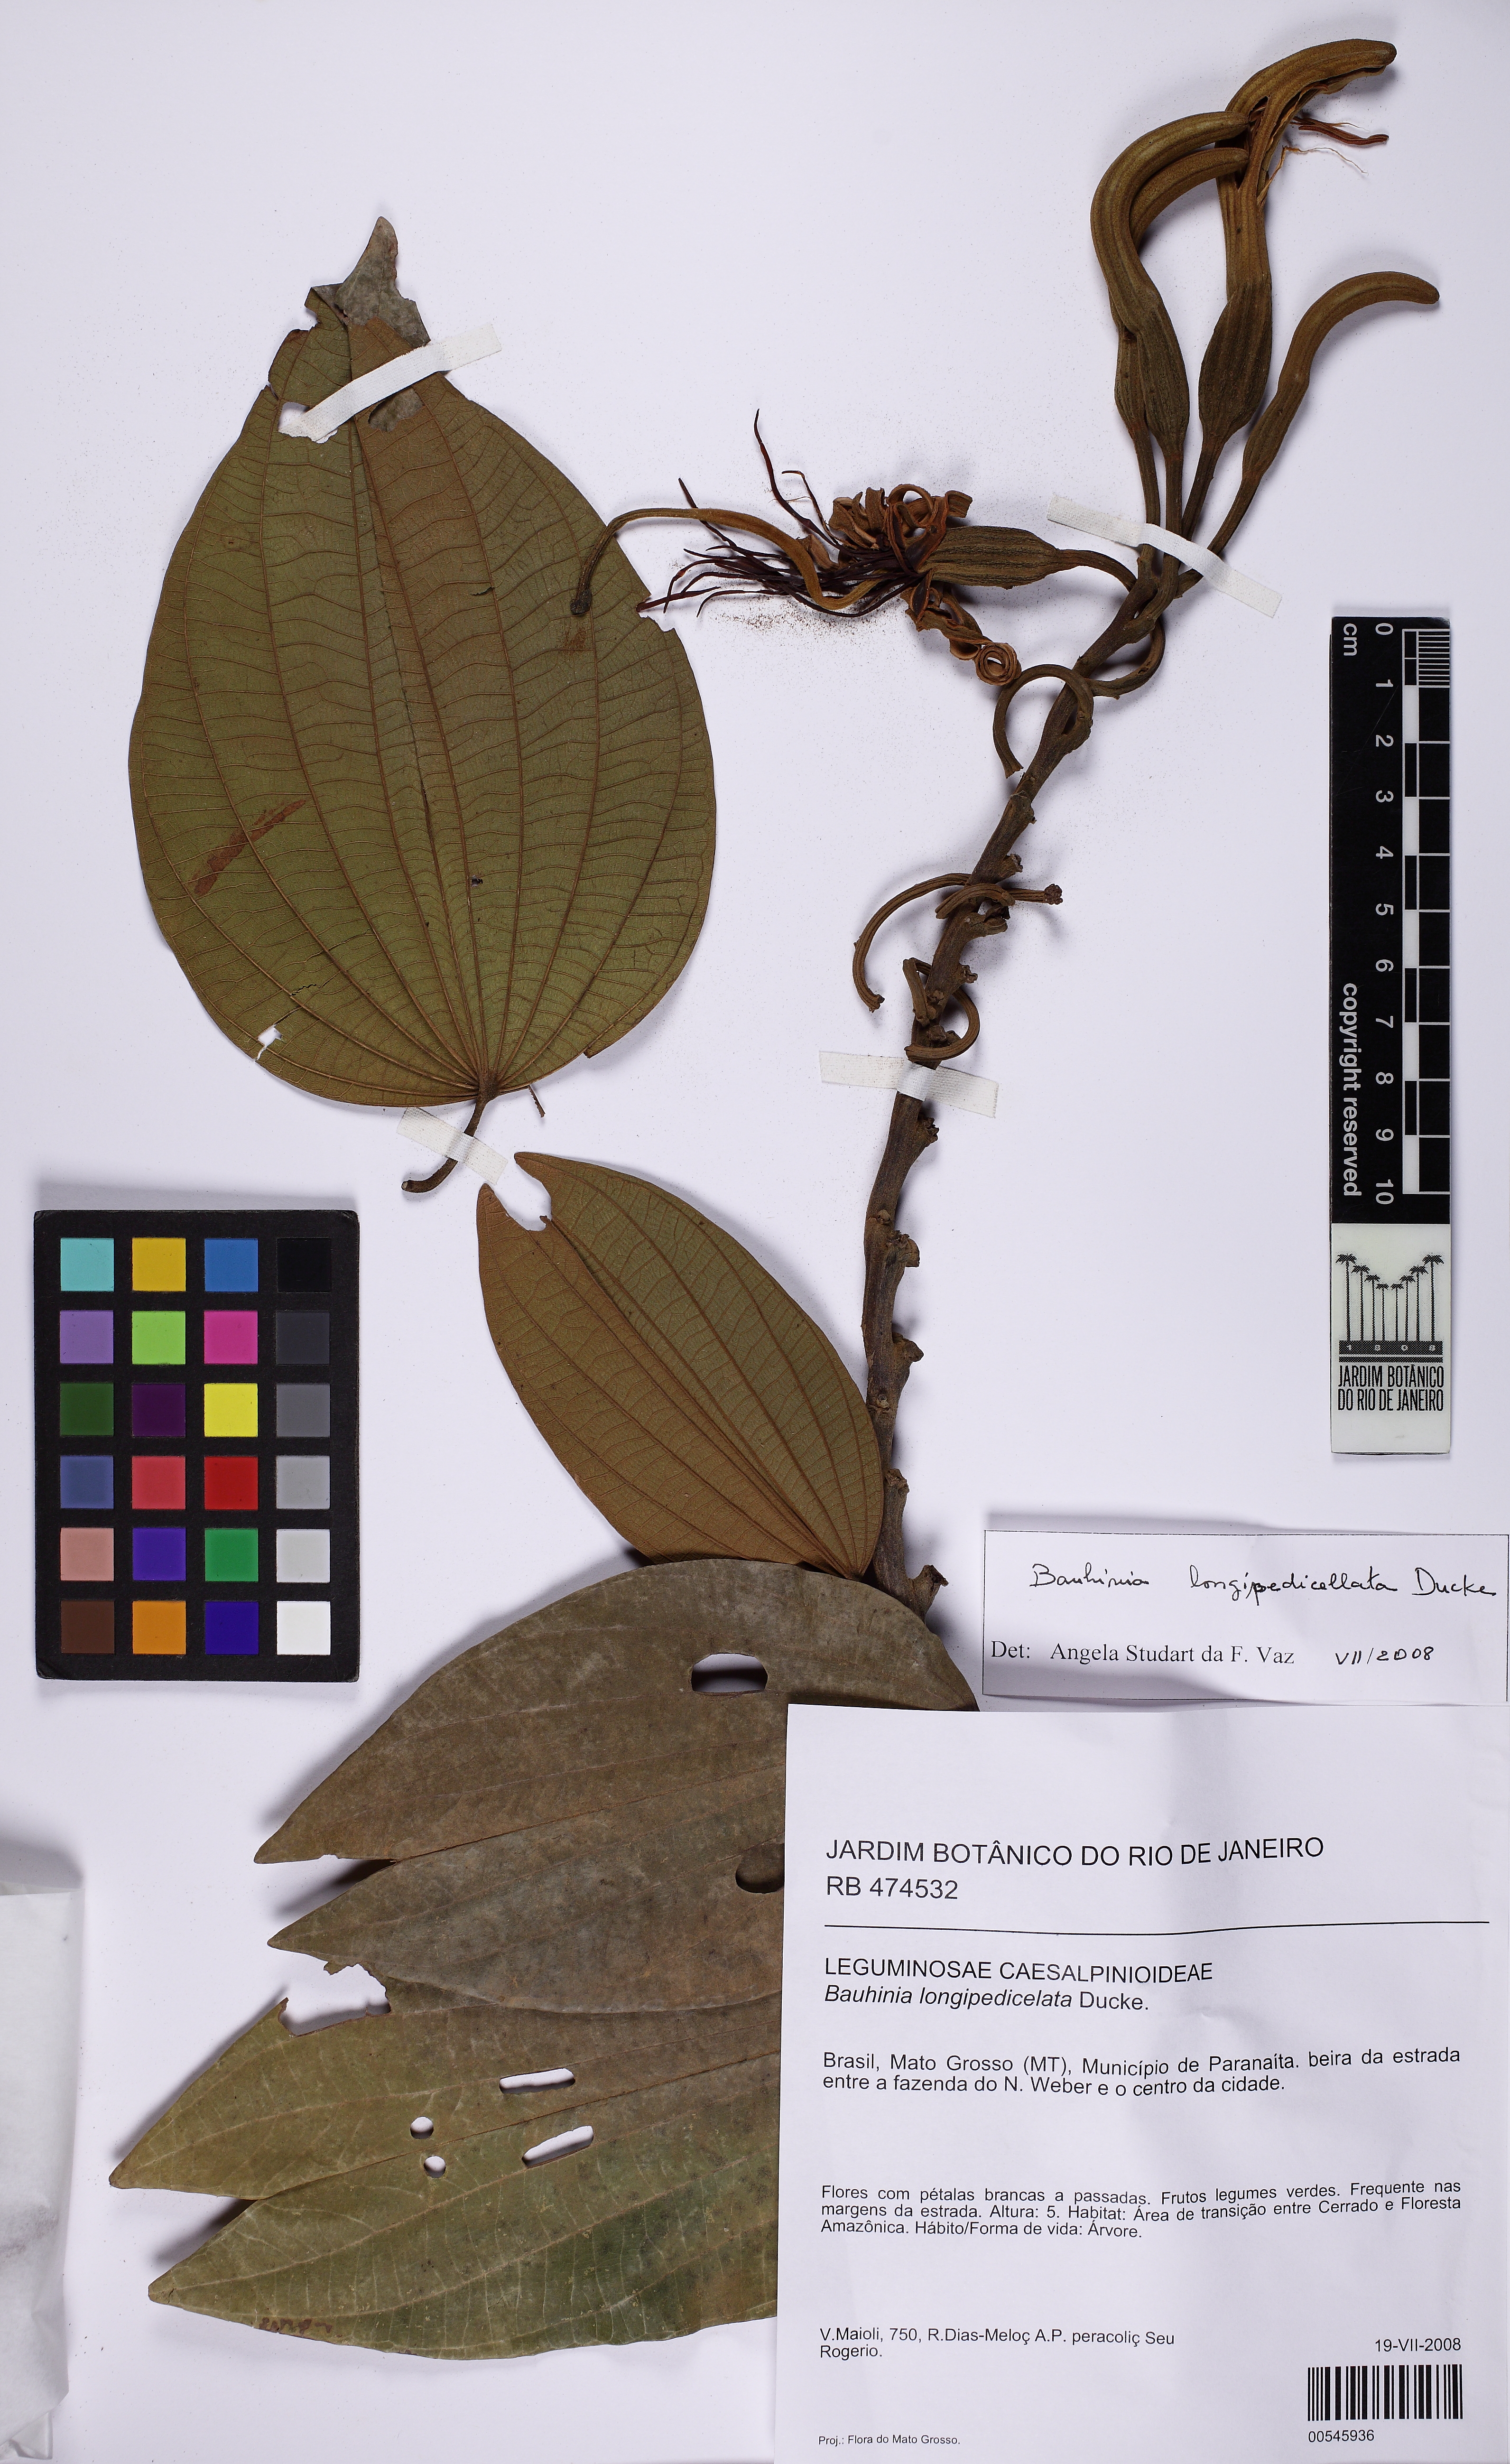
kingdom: Plantae
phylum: Tracheophyta
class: Magnoliopsida
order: Fabales
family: Fabaceae
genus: Bauhinia
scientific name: Bauhinia longipedicellata
